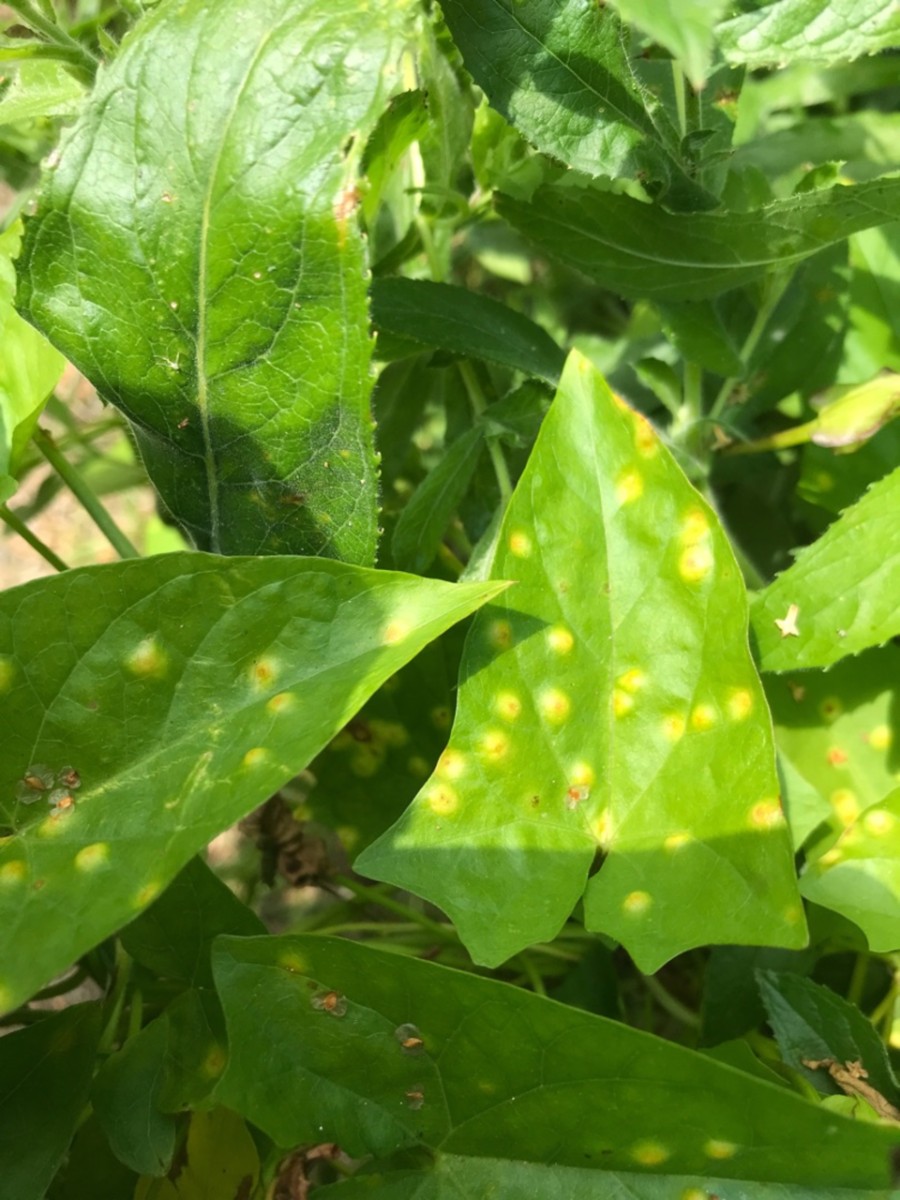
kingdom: Fungi
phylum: Basidiomycota
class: Pucciniomycetes
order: Pucciniales
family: Pucciniaceae
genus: Puccinia
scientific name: Puccinia convolvuli
